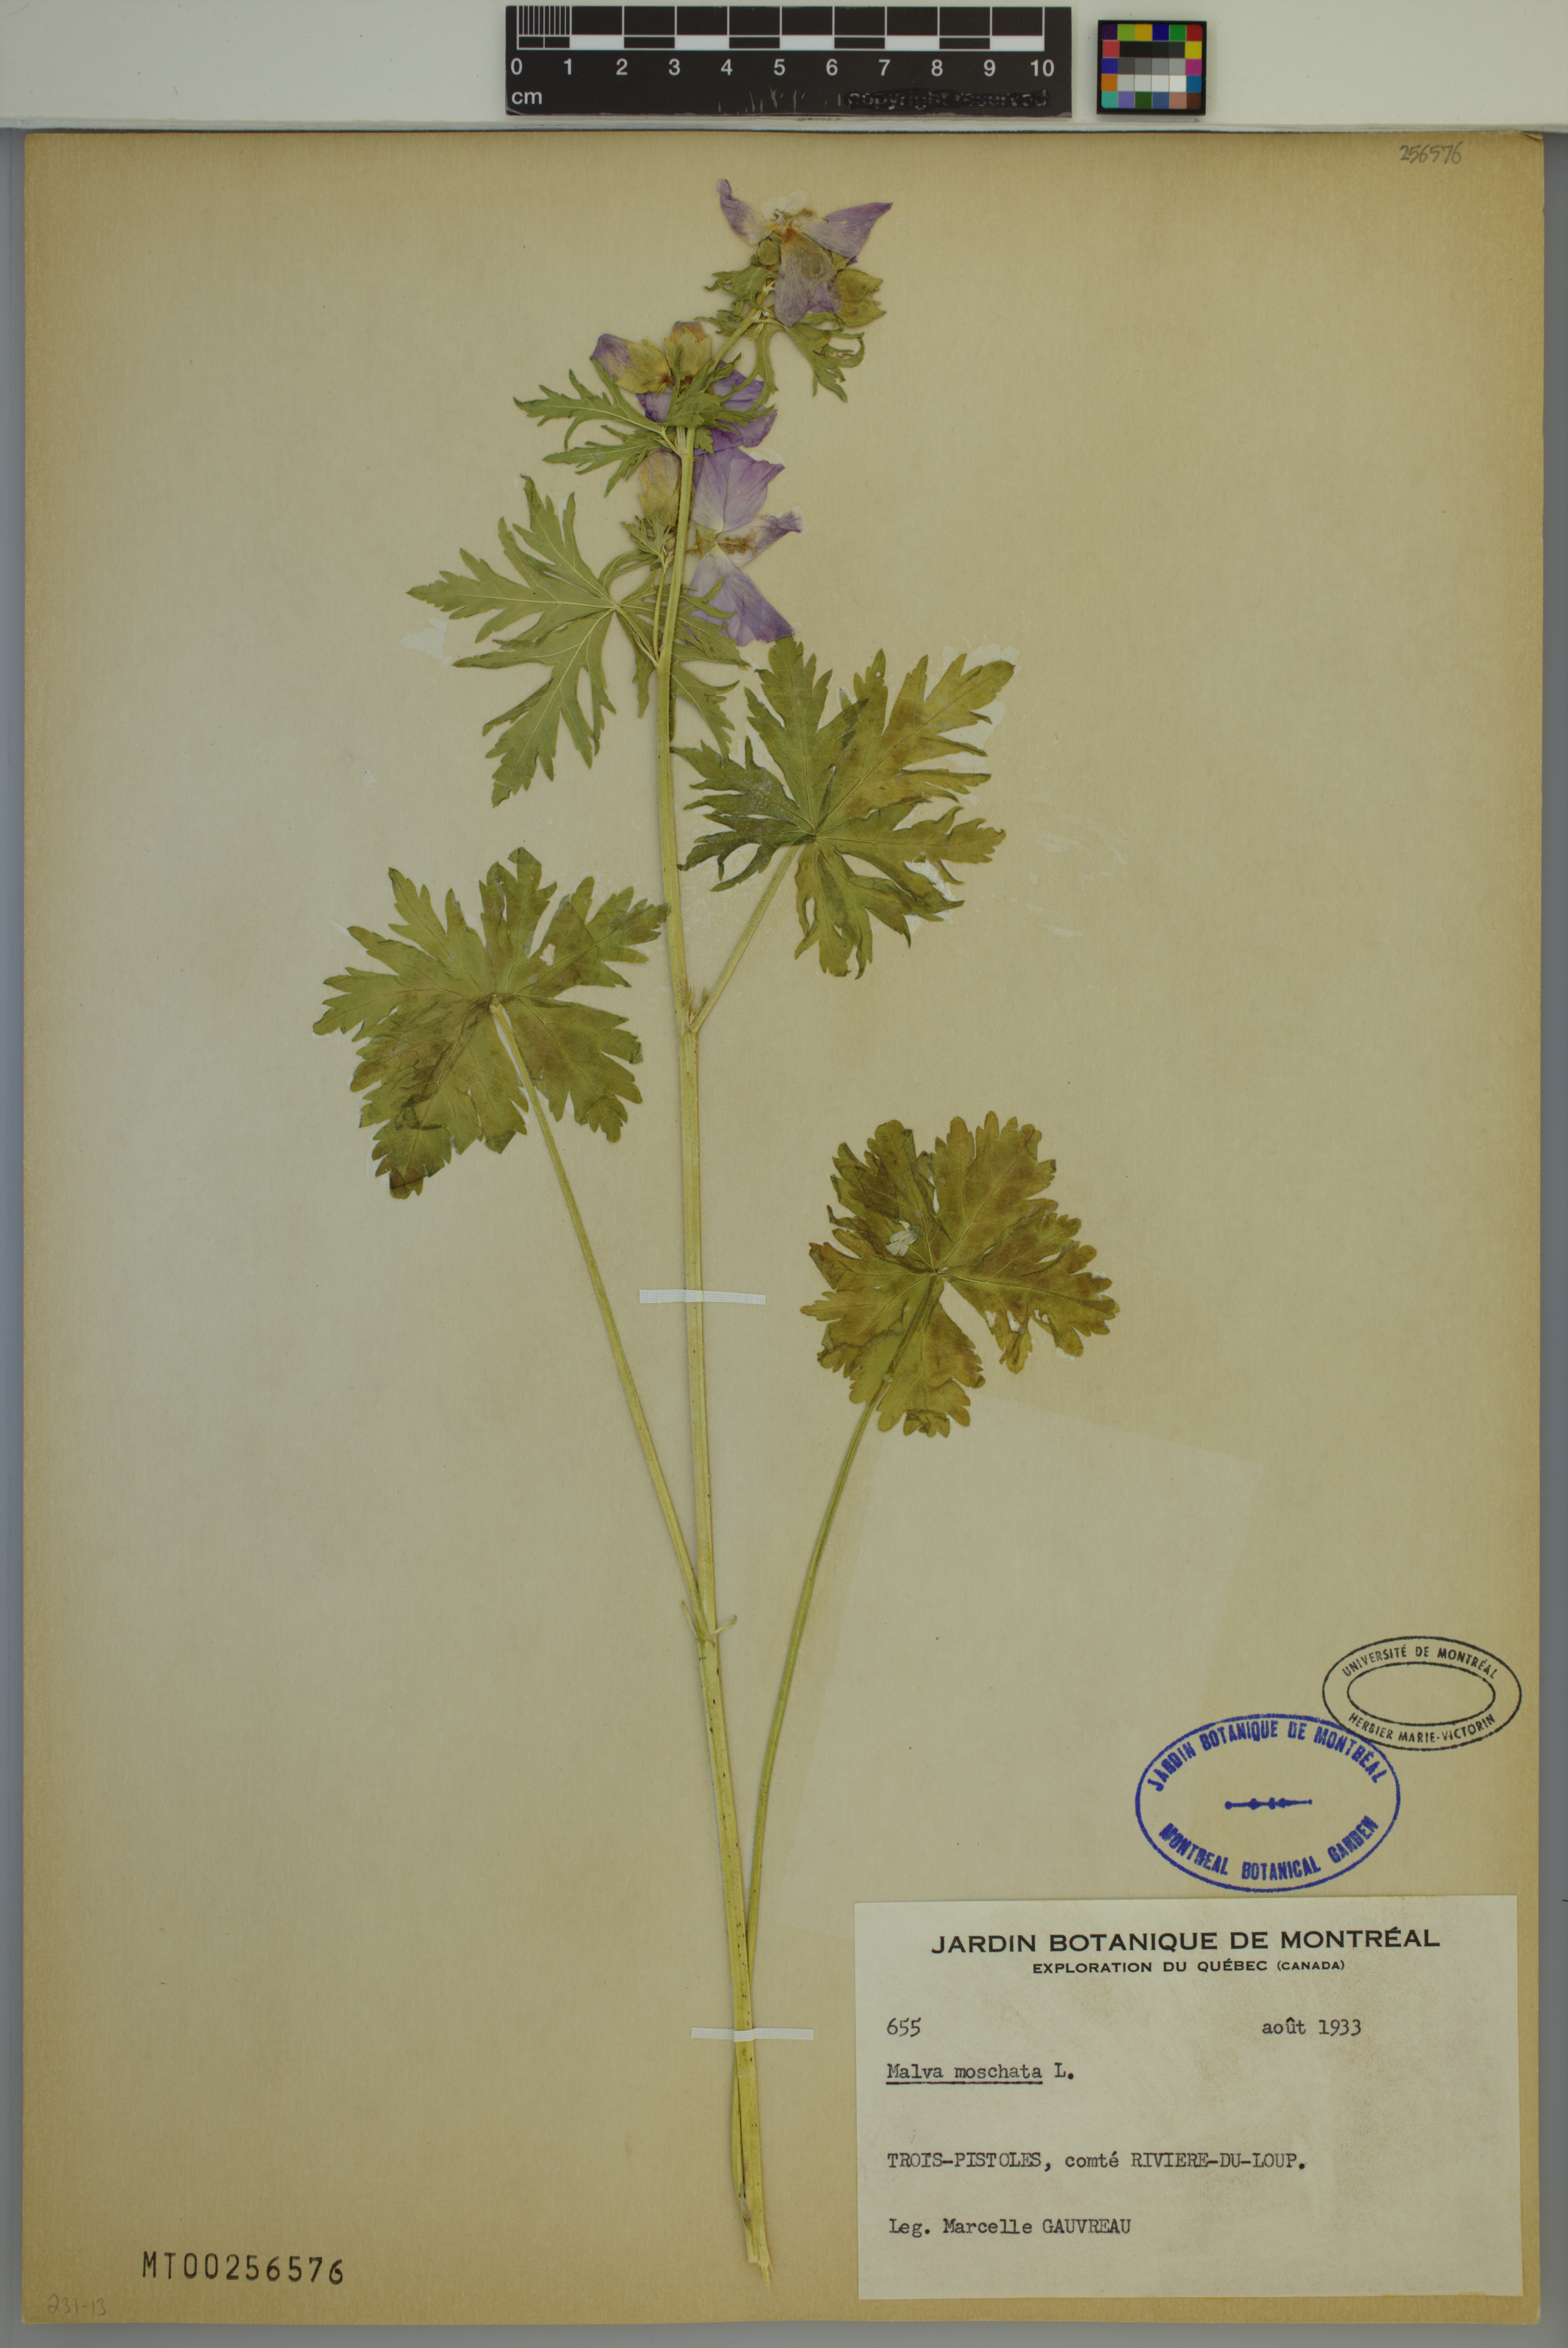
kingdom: Plantae
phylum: Tracheophyta
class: Magnoliopsida
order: Malvales
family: Malvaceae
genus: Malva
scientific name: Malva moschata
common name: Musk mallow
